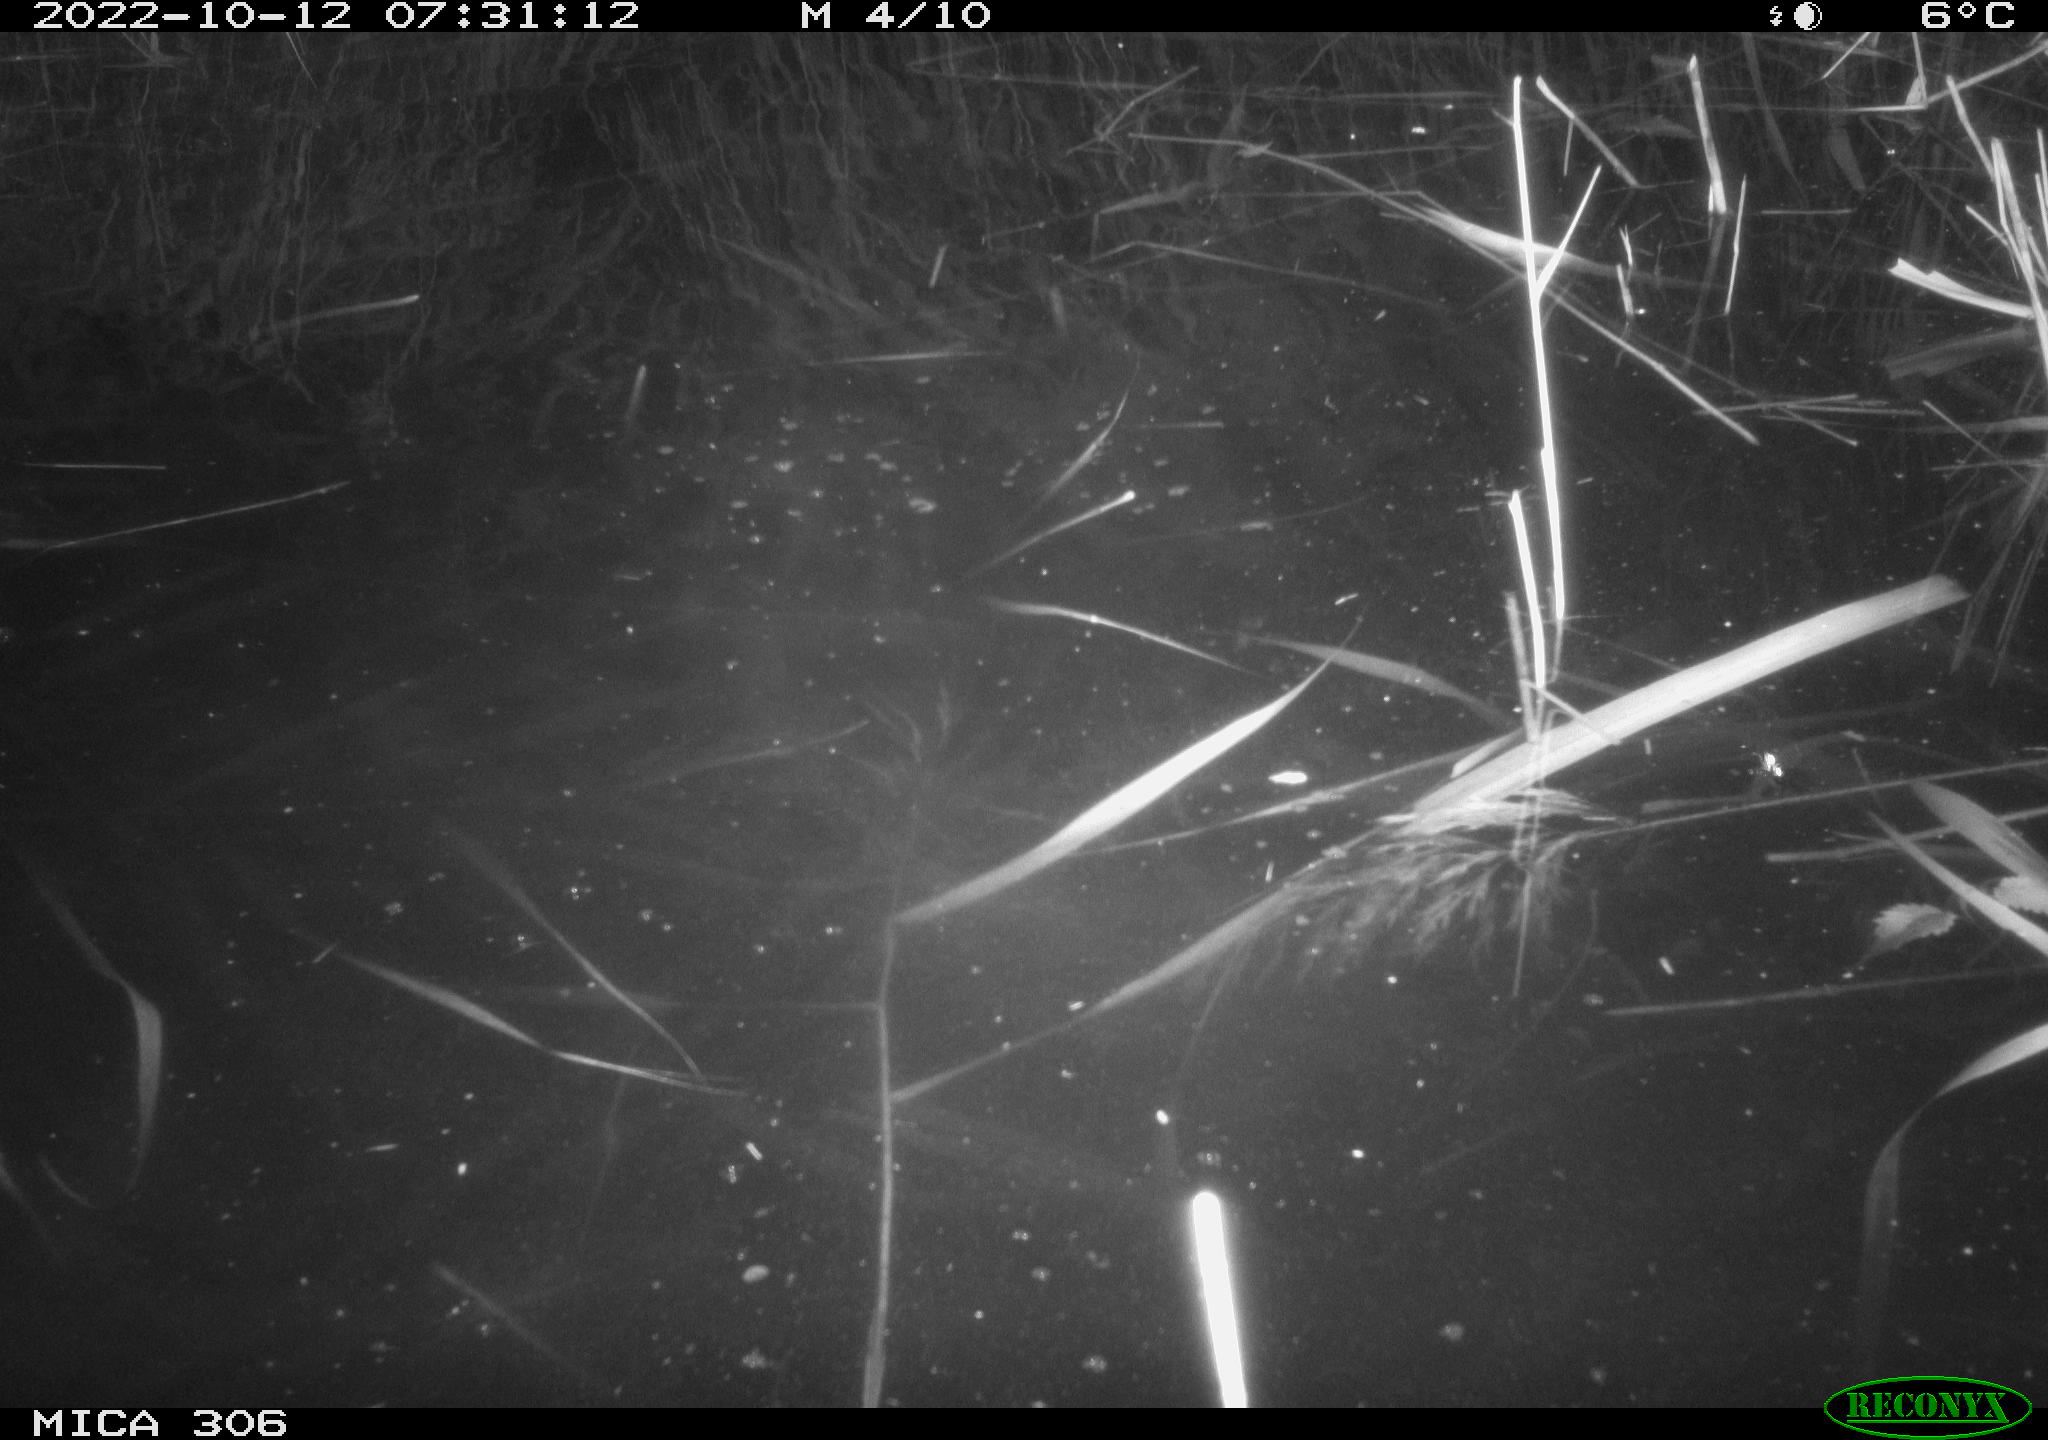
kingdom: Animalia
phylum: Chordata
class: Mammalia
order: Rodentia
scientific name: Rodentia
